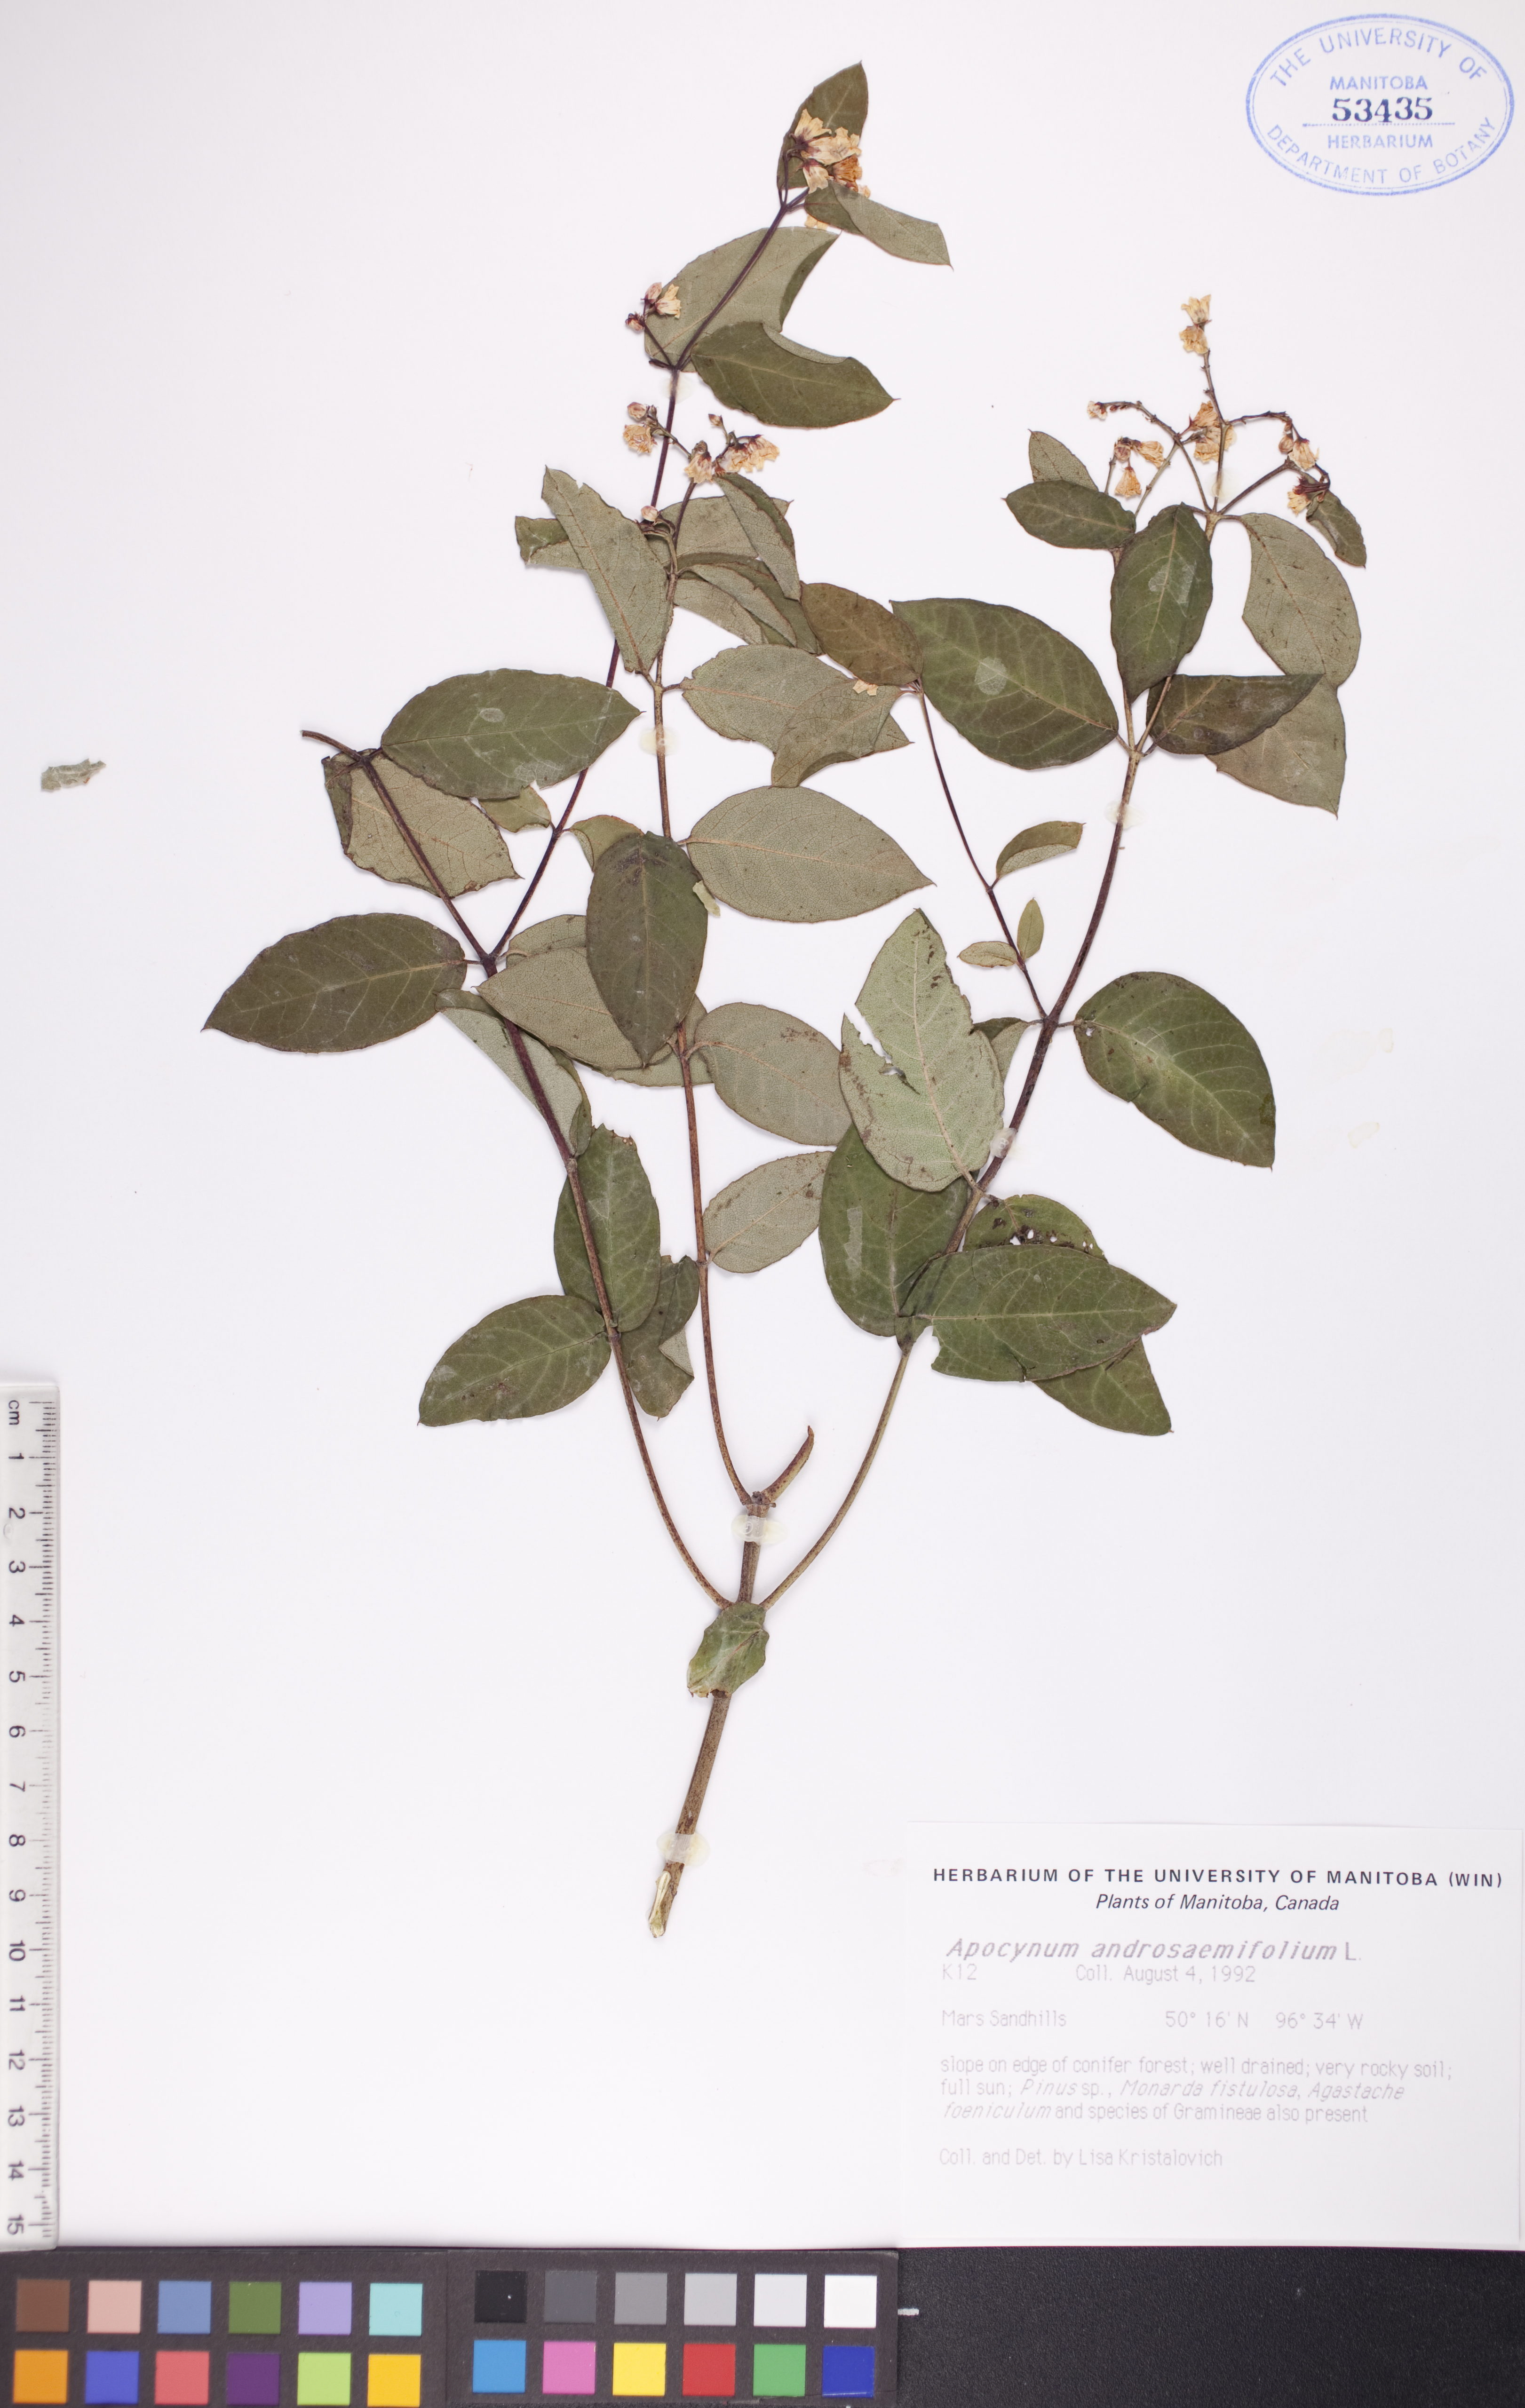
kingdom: Plantae
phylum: Tracheophyta
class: Magnoliopsida
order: Gentianales
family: Apocynaceae
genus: Apocynum
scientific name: Apocynum androsaemifolium
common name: Spreading dogbane
